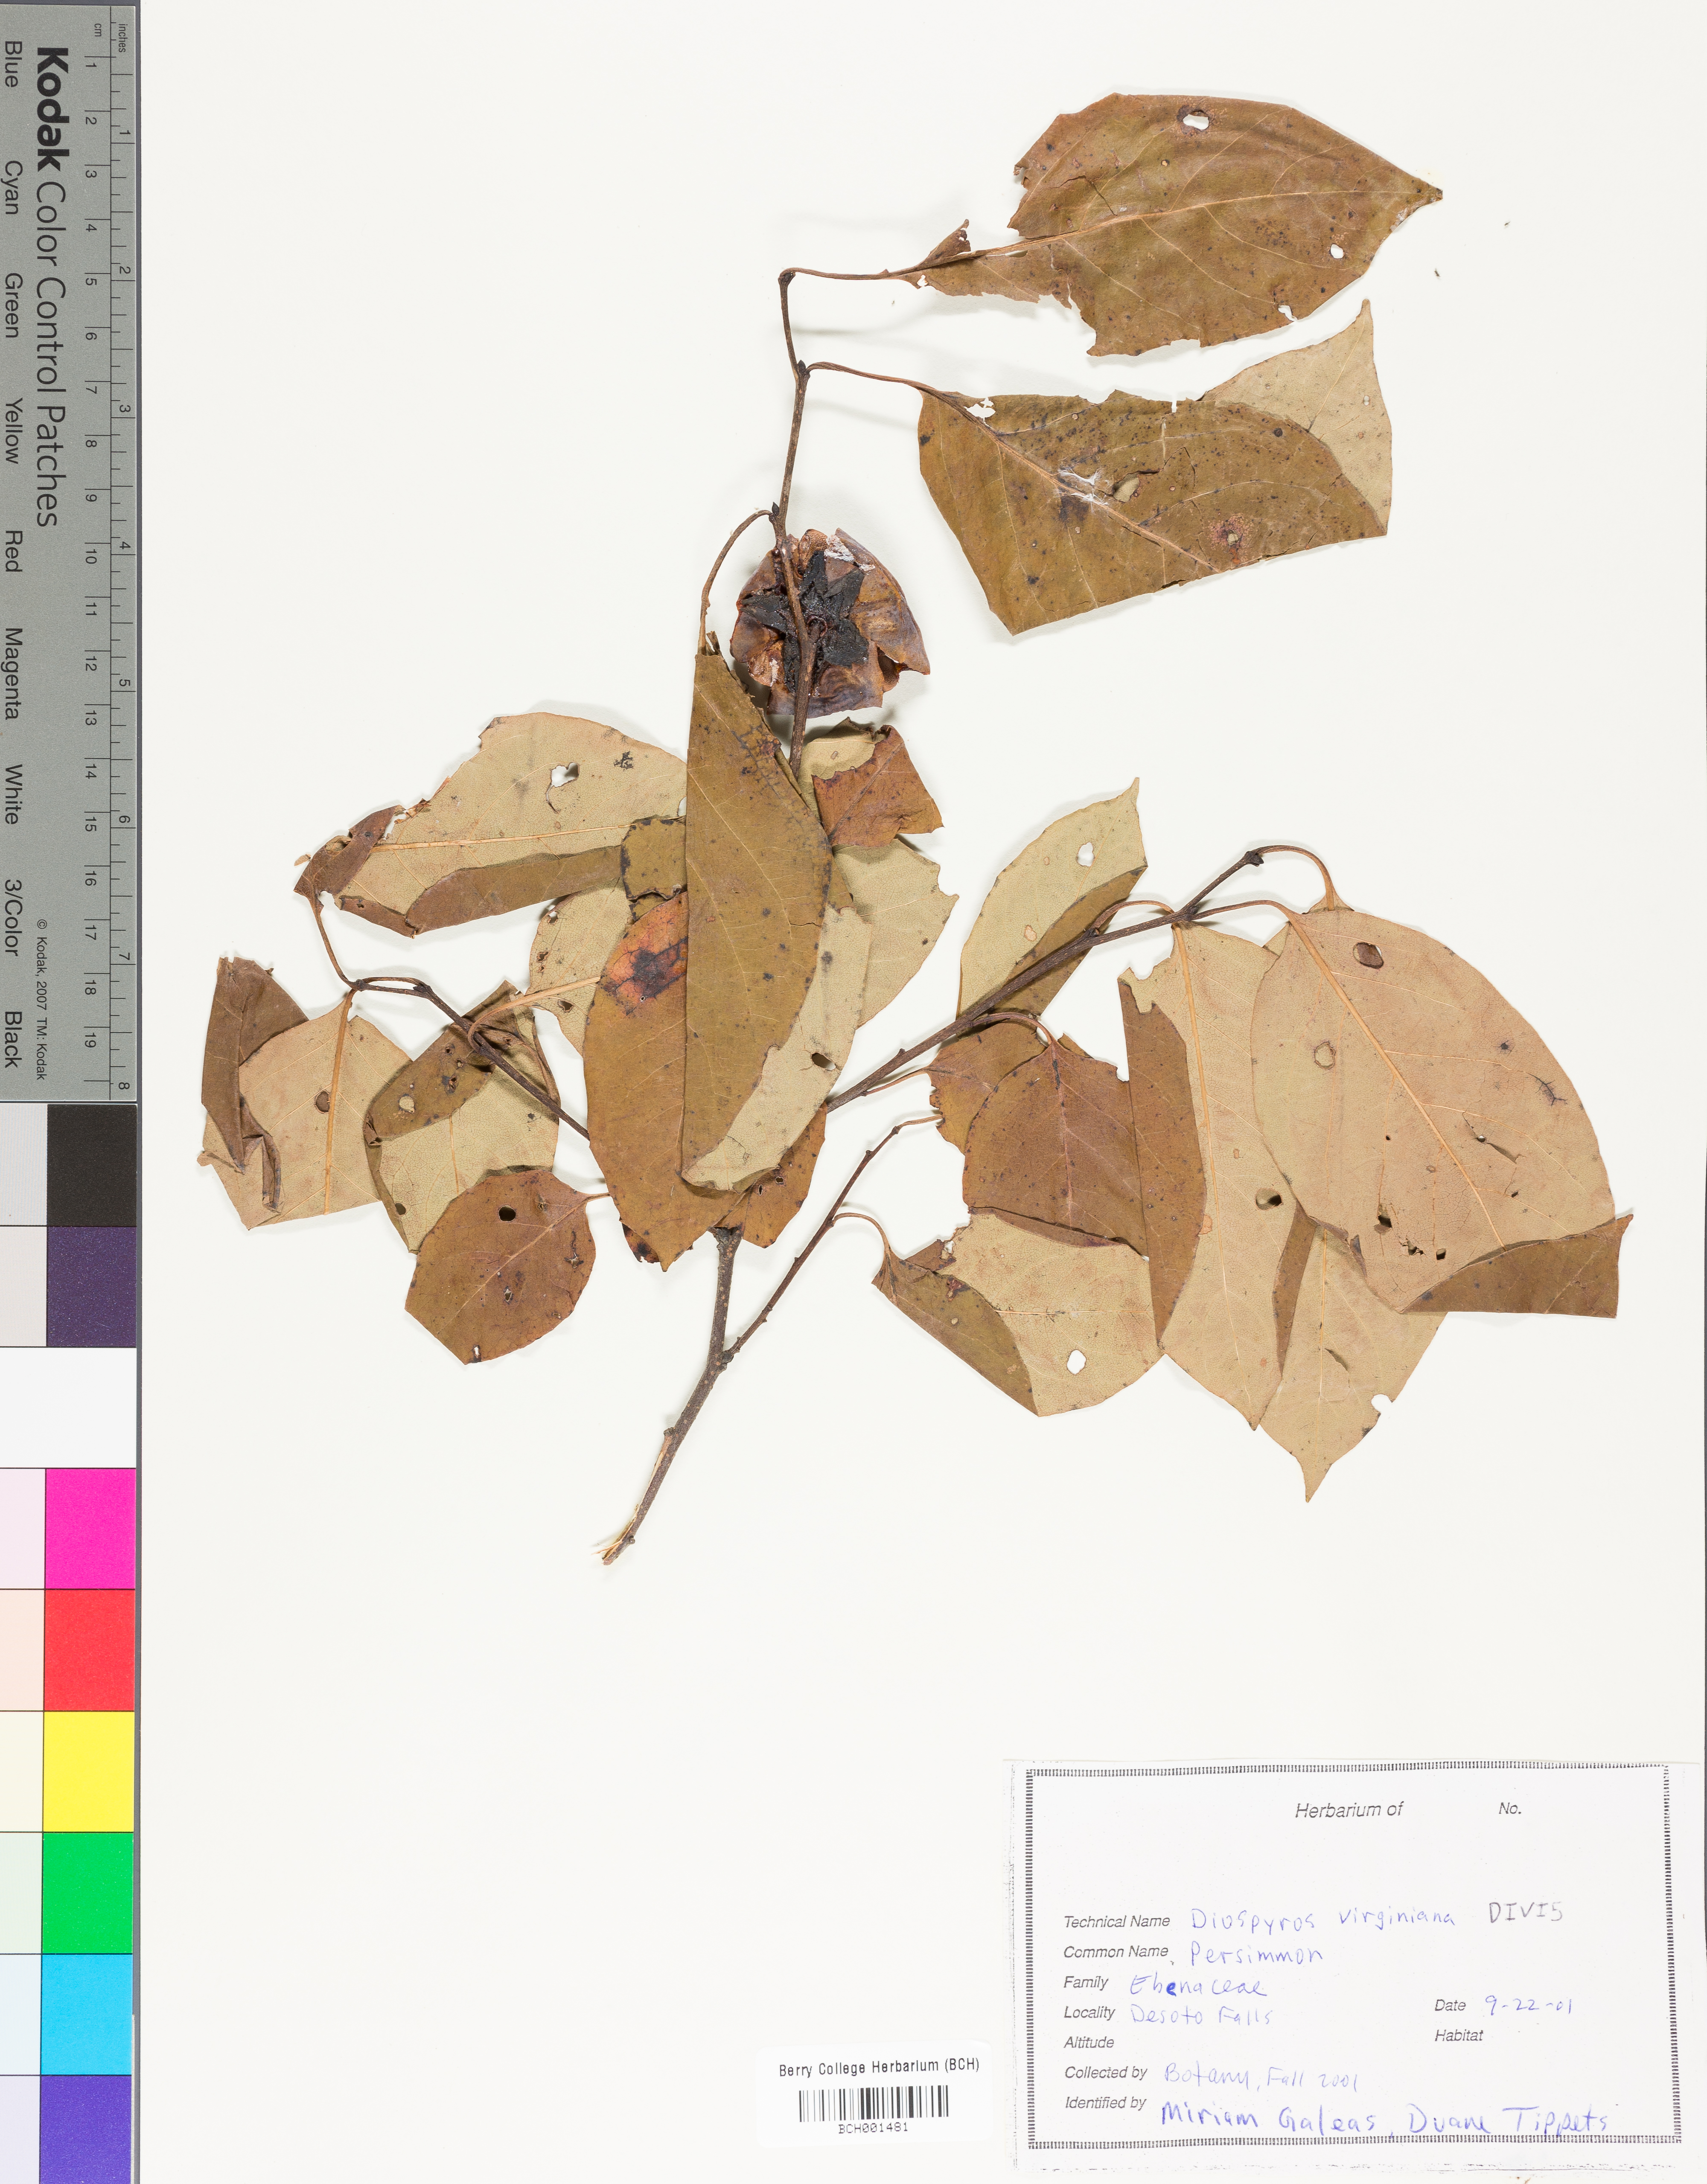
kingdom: Plantae
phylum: Tracheophyta
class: Magnoliopsida
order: Ericales
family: Ebenaceae
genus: Diospyros
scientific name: Diospyros virginiana
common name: Persimmon
